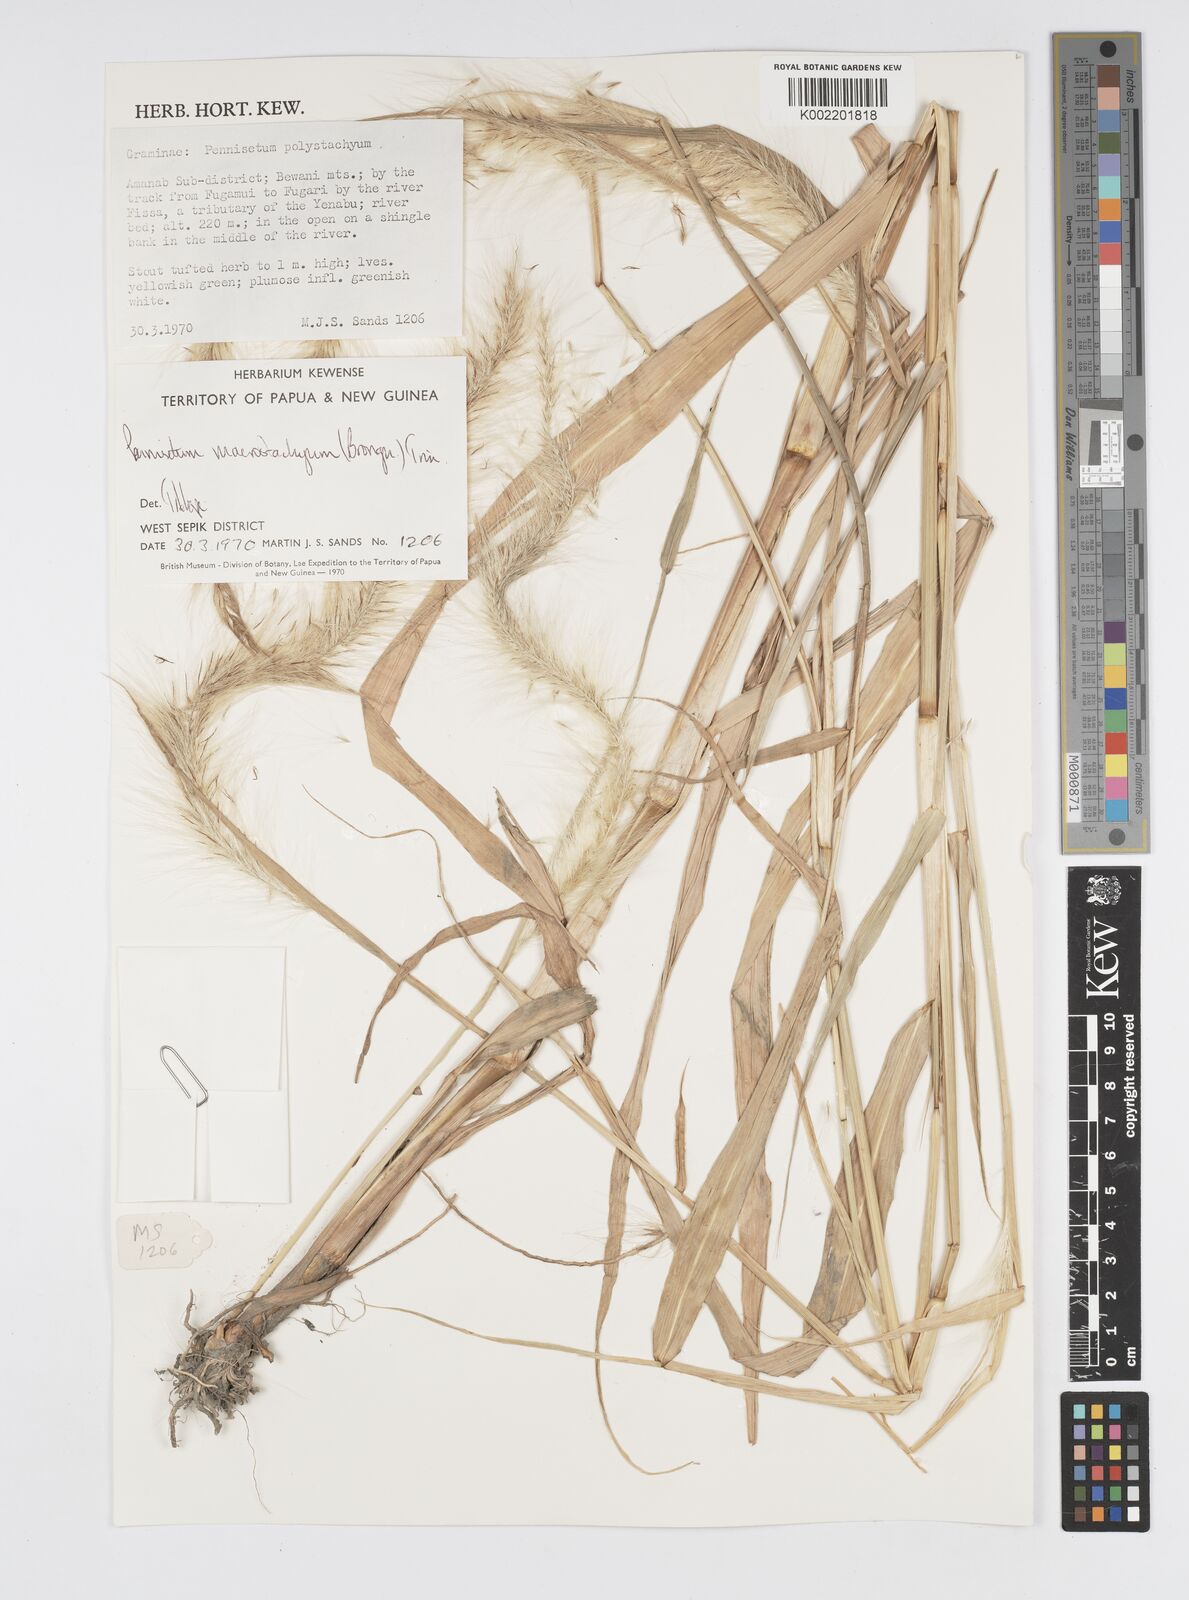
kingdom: Plantae
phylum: Tracheophyta
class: Liliopsida
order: Poales
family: Poaceae
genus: Cenchrus
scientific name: Cenchrus purpureus
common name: Elephant grass
